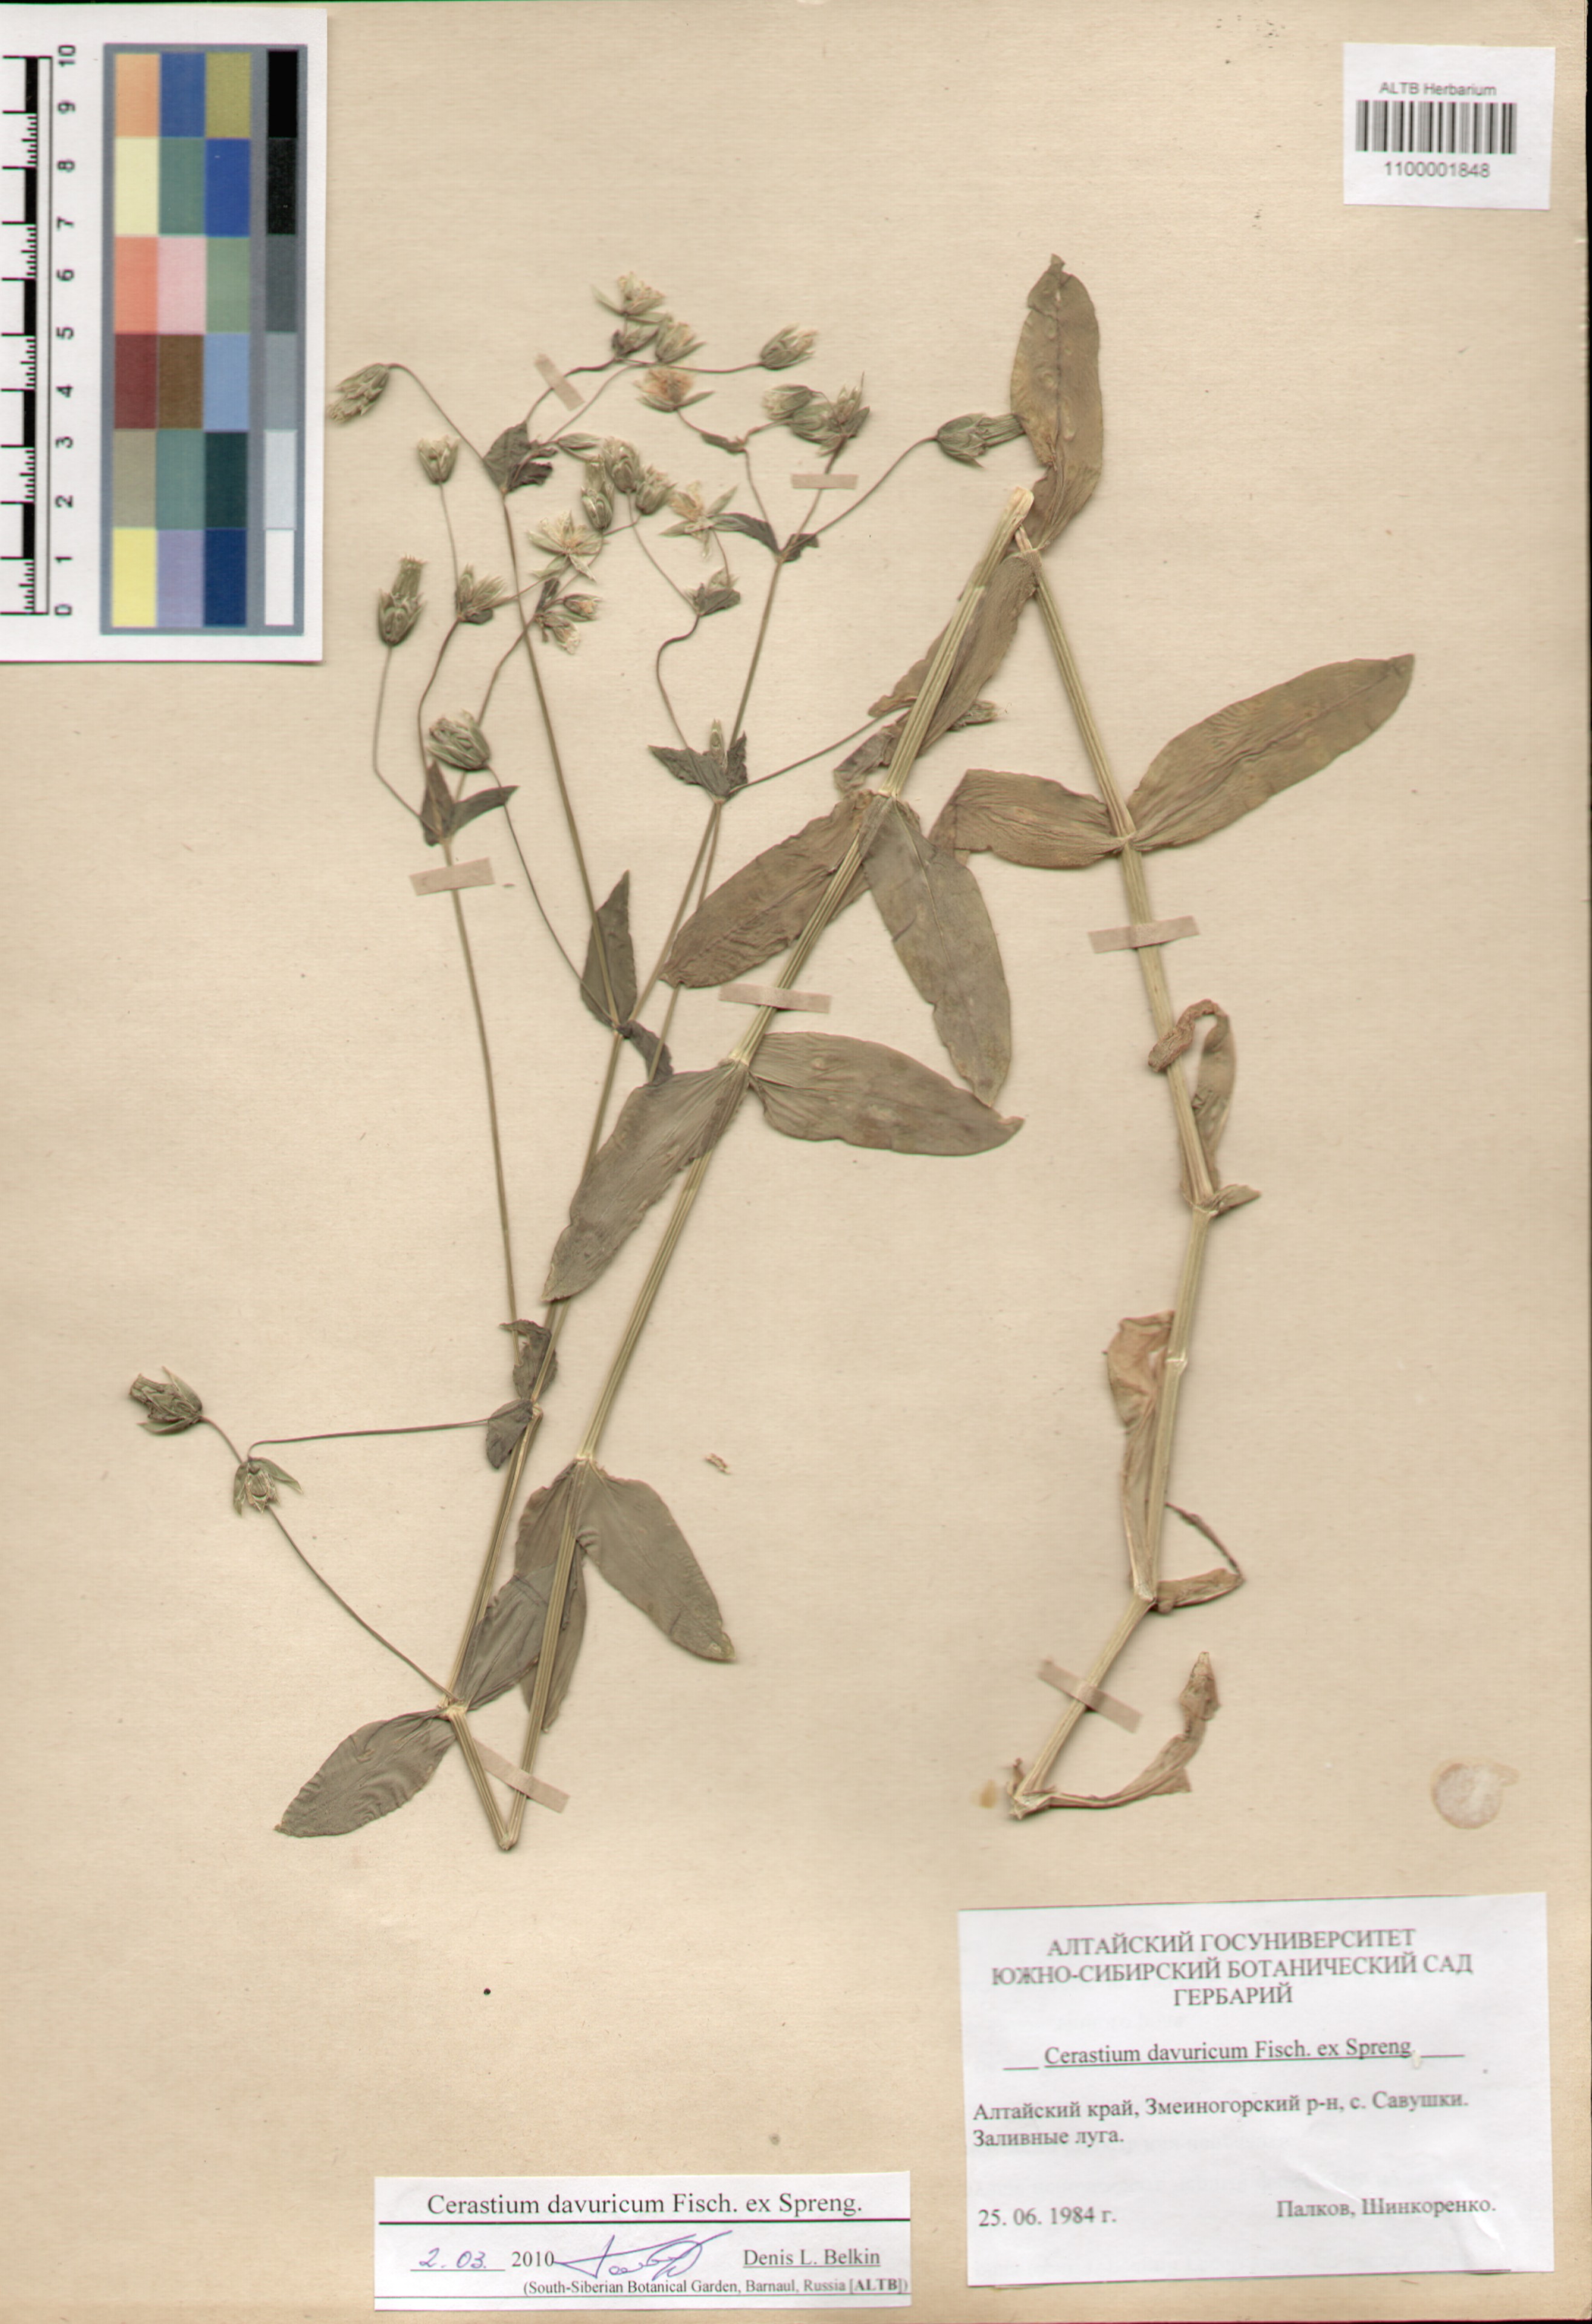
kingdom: Plantae
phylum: Tracheophyta
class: Magnoliopsida
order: Caryophyllales
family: Caryophyllaceae
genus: Dichodon
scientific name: Dichodon davuricum
